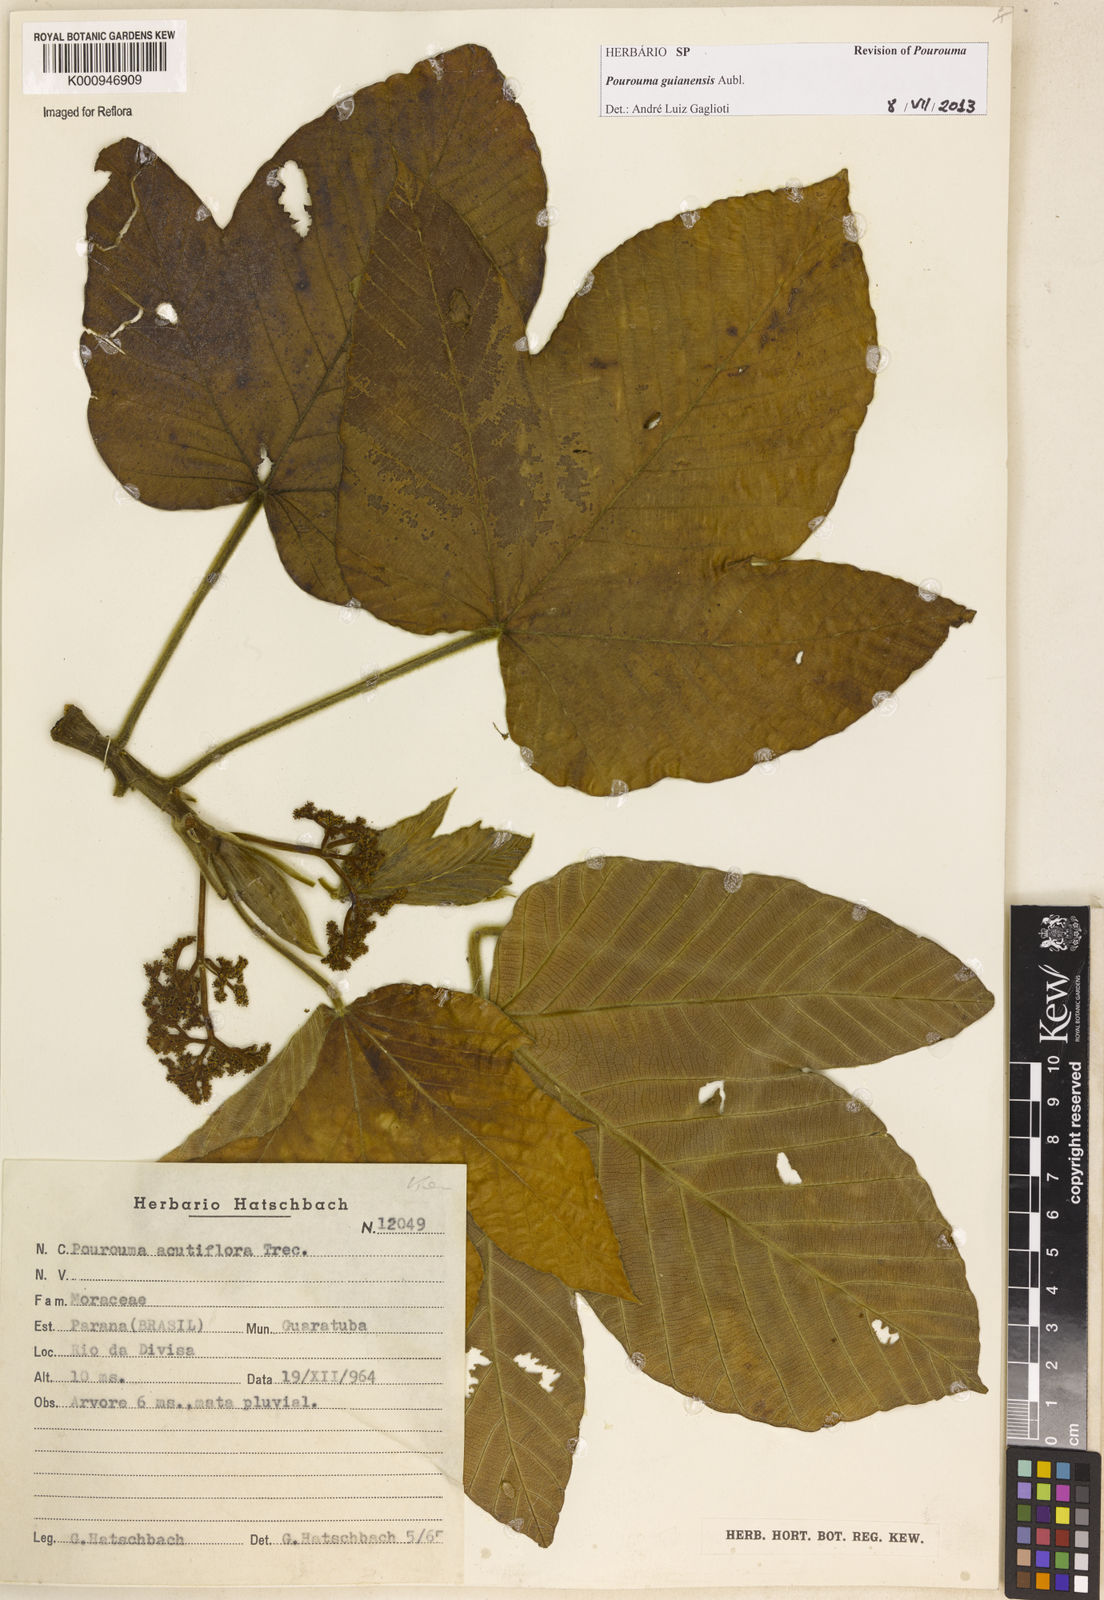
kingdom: Plantae
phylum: Tracheophyta
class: Magnoliopsida
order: Rosales
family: Urticaceae
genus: Pourouma
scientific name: Pourouma guianensis
